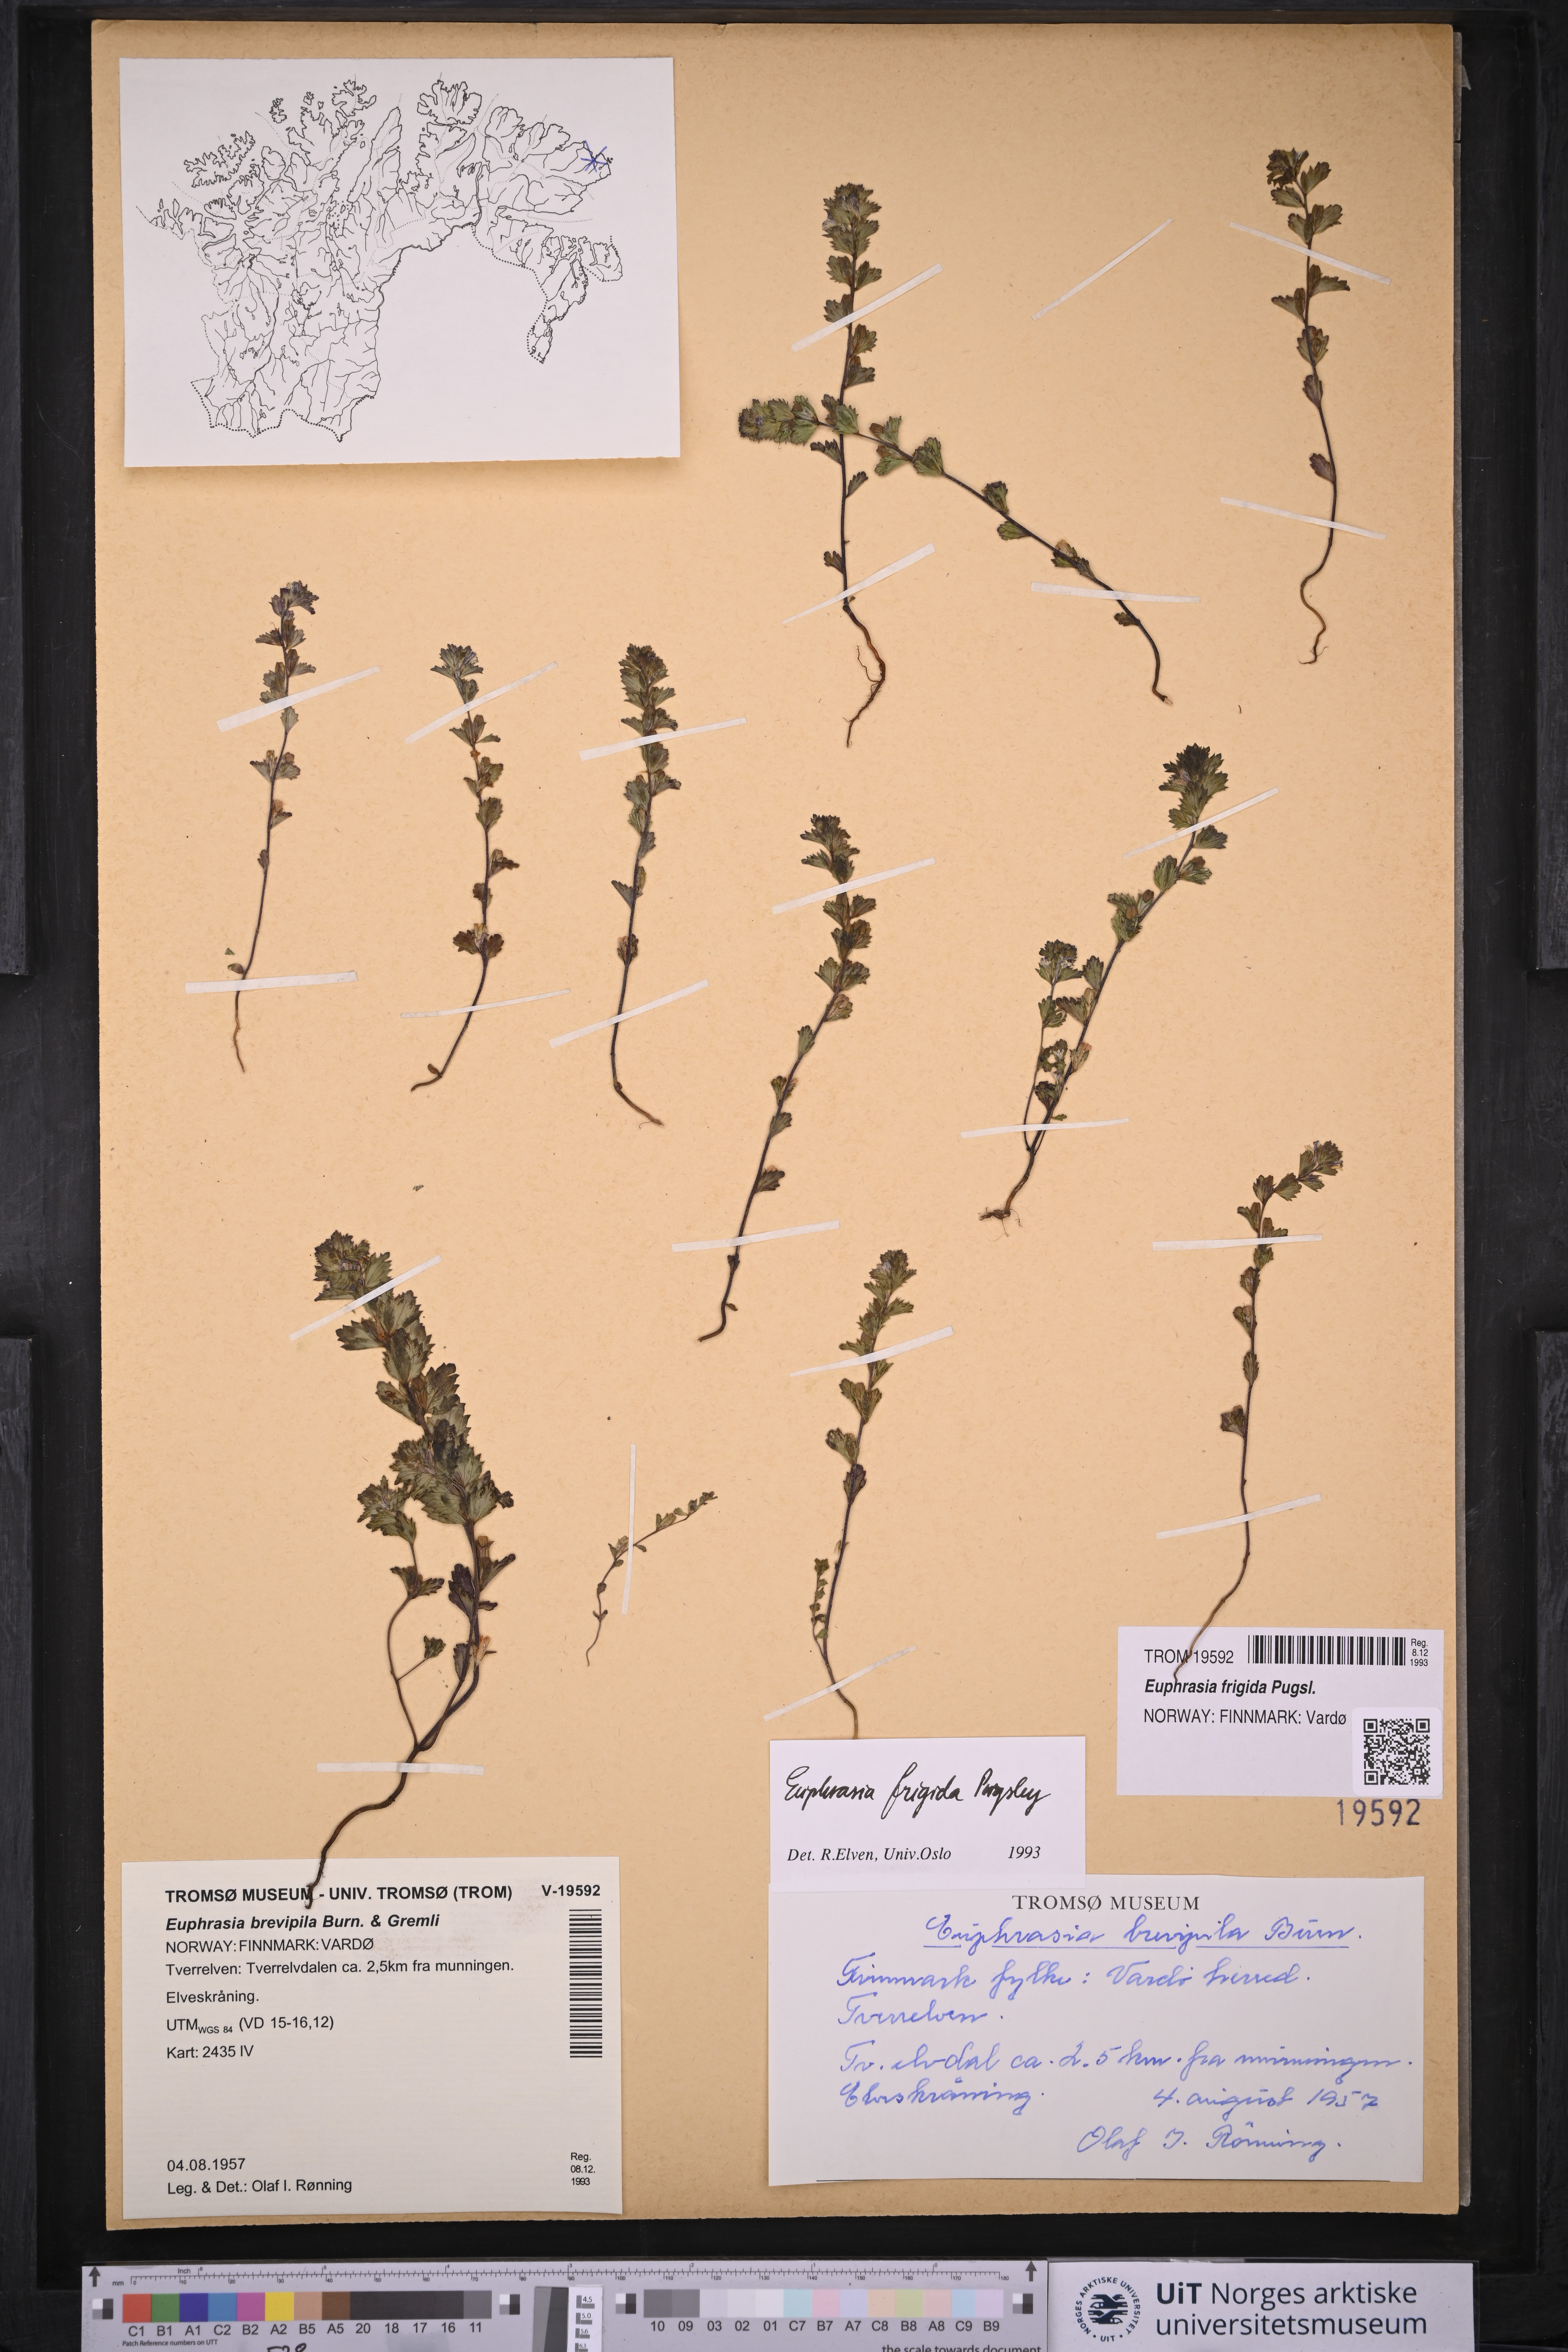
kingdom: Plantae
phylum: Tracheophyta
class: Magnoliopsida
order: Lamiales
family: Orobanchaceae
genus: Euphrasia
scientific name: Euphrasia frigida
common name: An eyebright
